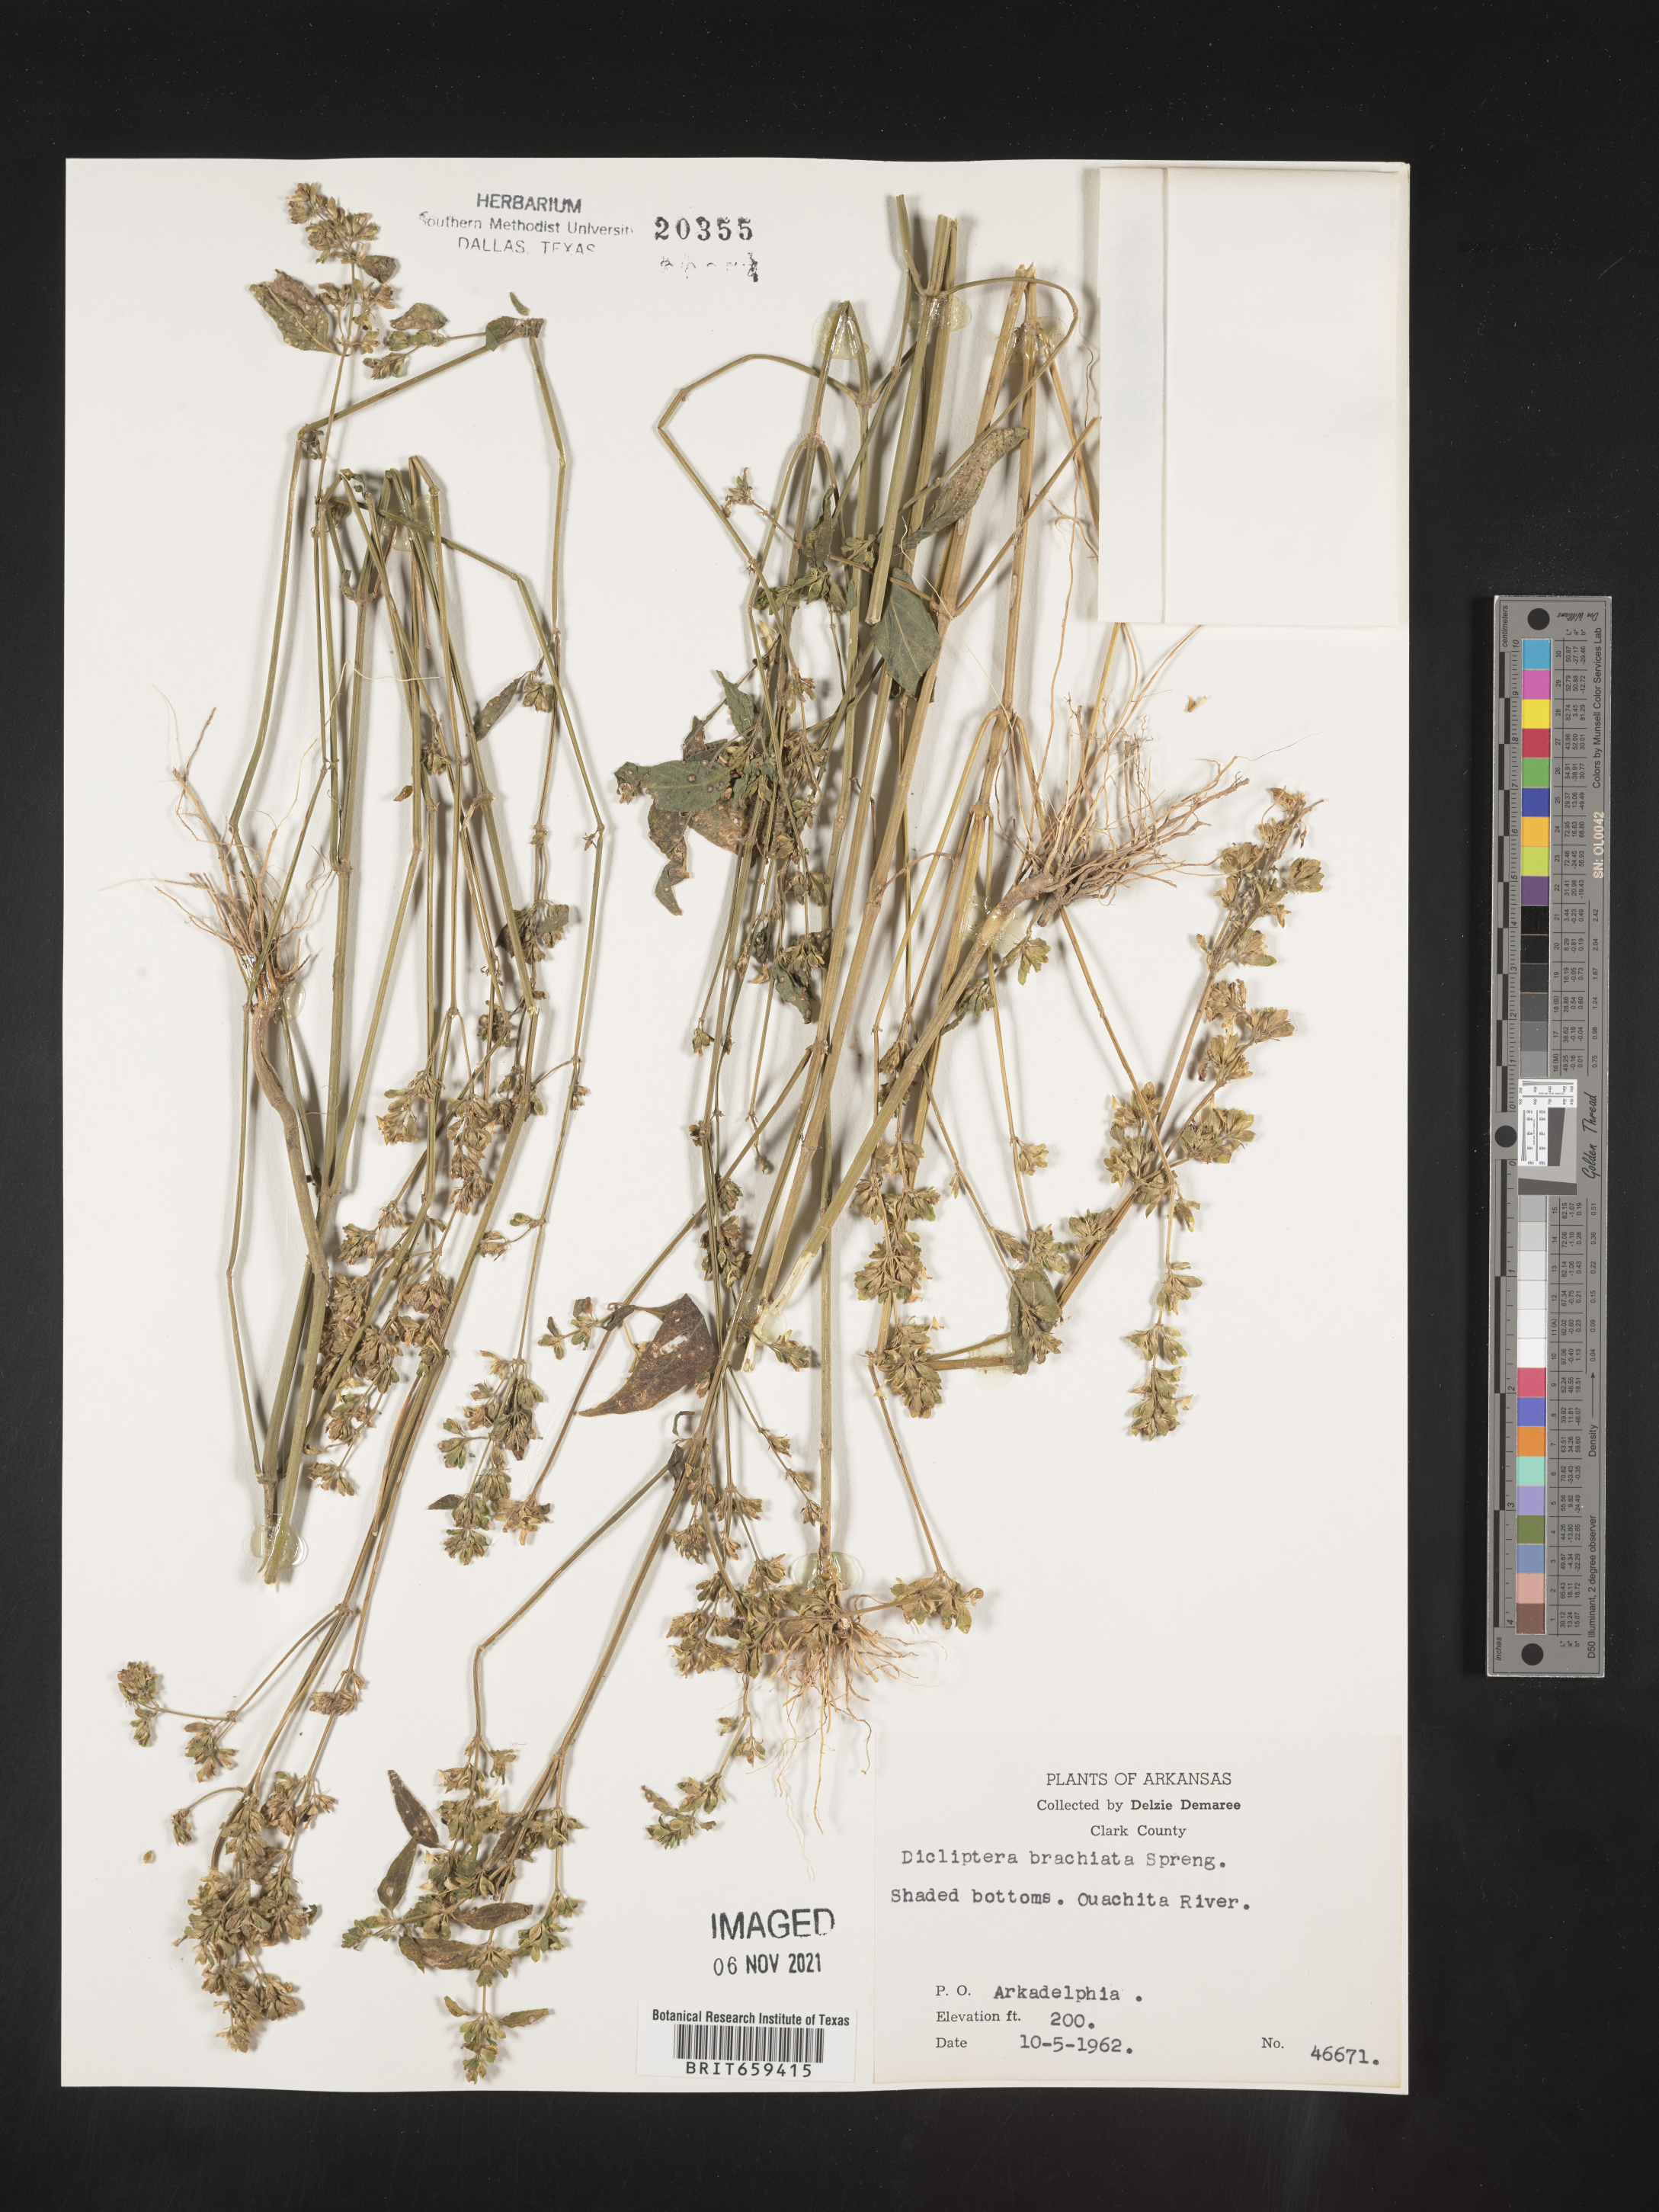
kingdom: Plantae
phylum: Tracheophyta
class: Magnoliopsida
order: Lamiales
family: Acanthaceae
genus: Dicliptera
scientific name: Dicliptera brachiata
